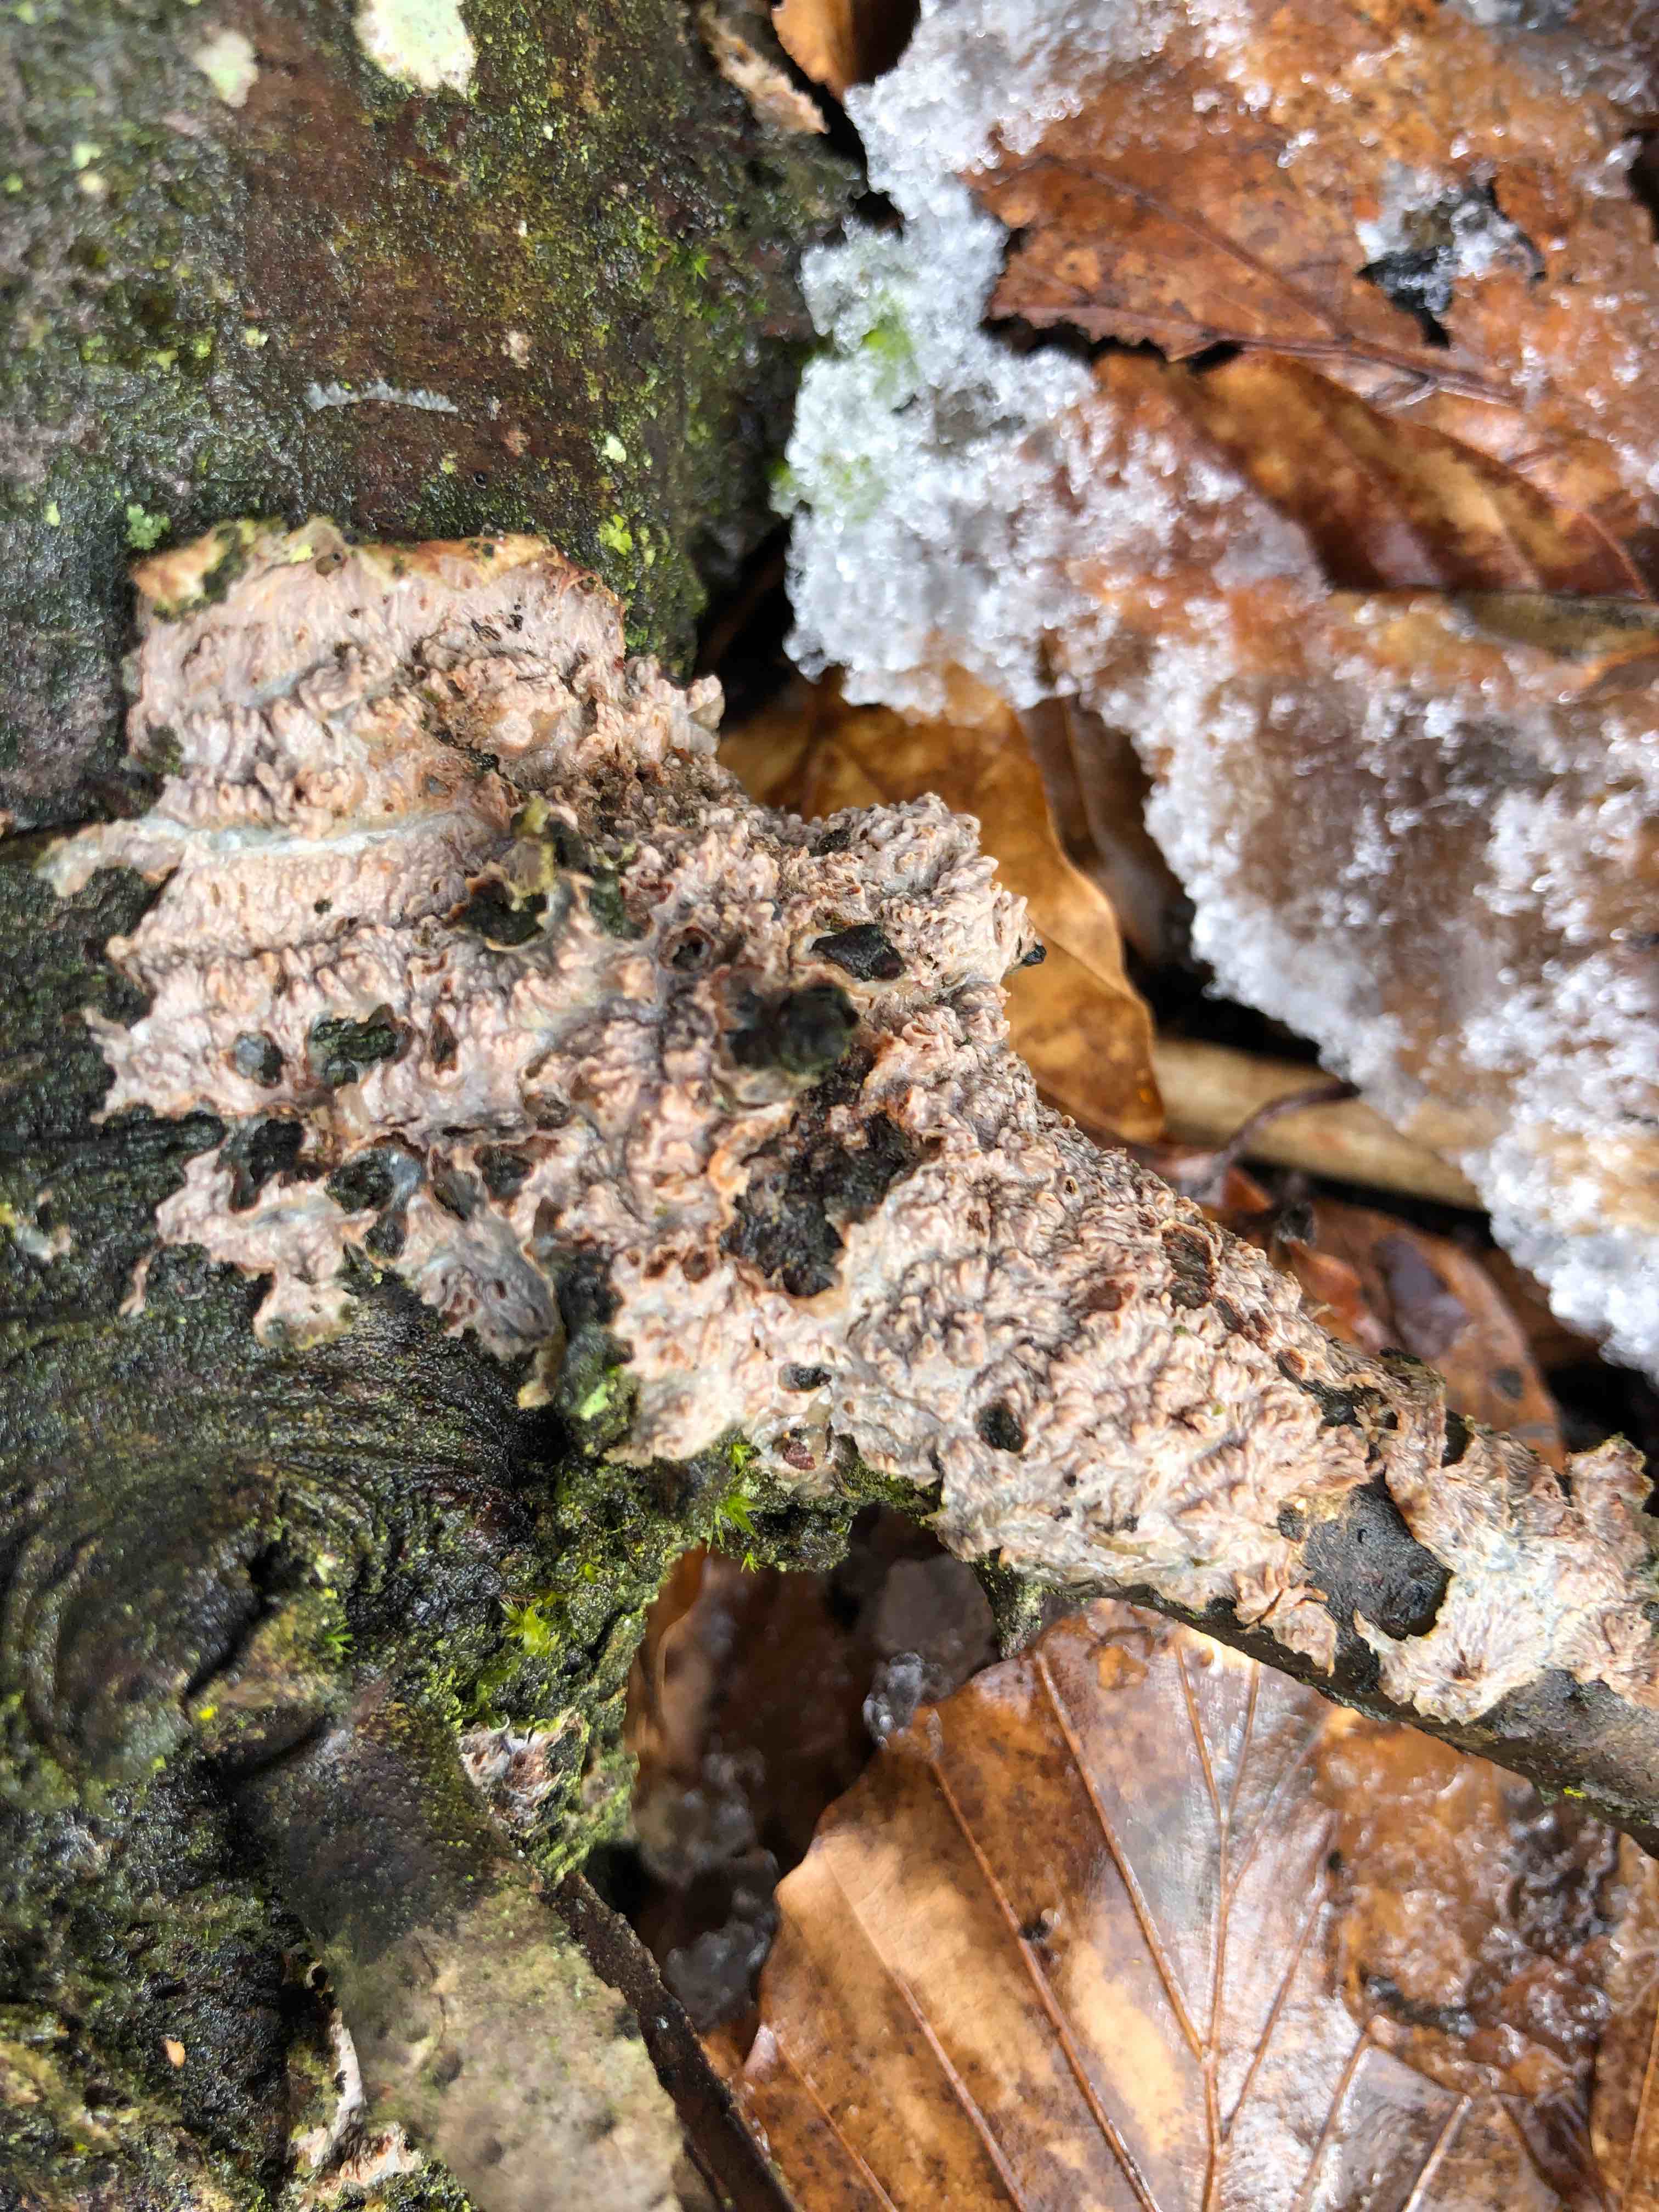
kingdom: Fungi
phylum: Basidiomycota
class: Agaricomycetes
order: Polyporales
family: Meruliaceae
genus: Phlebia
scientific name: Phlebia radiata
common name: stråle-åresvamp
